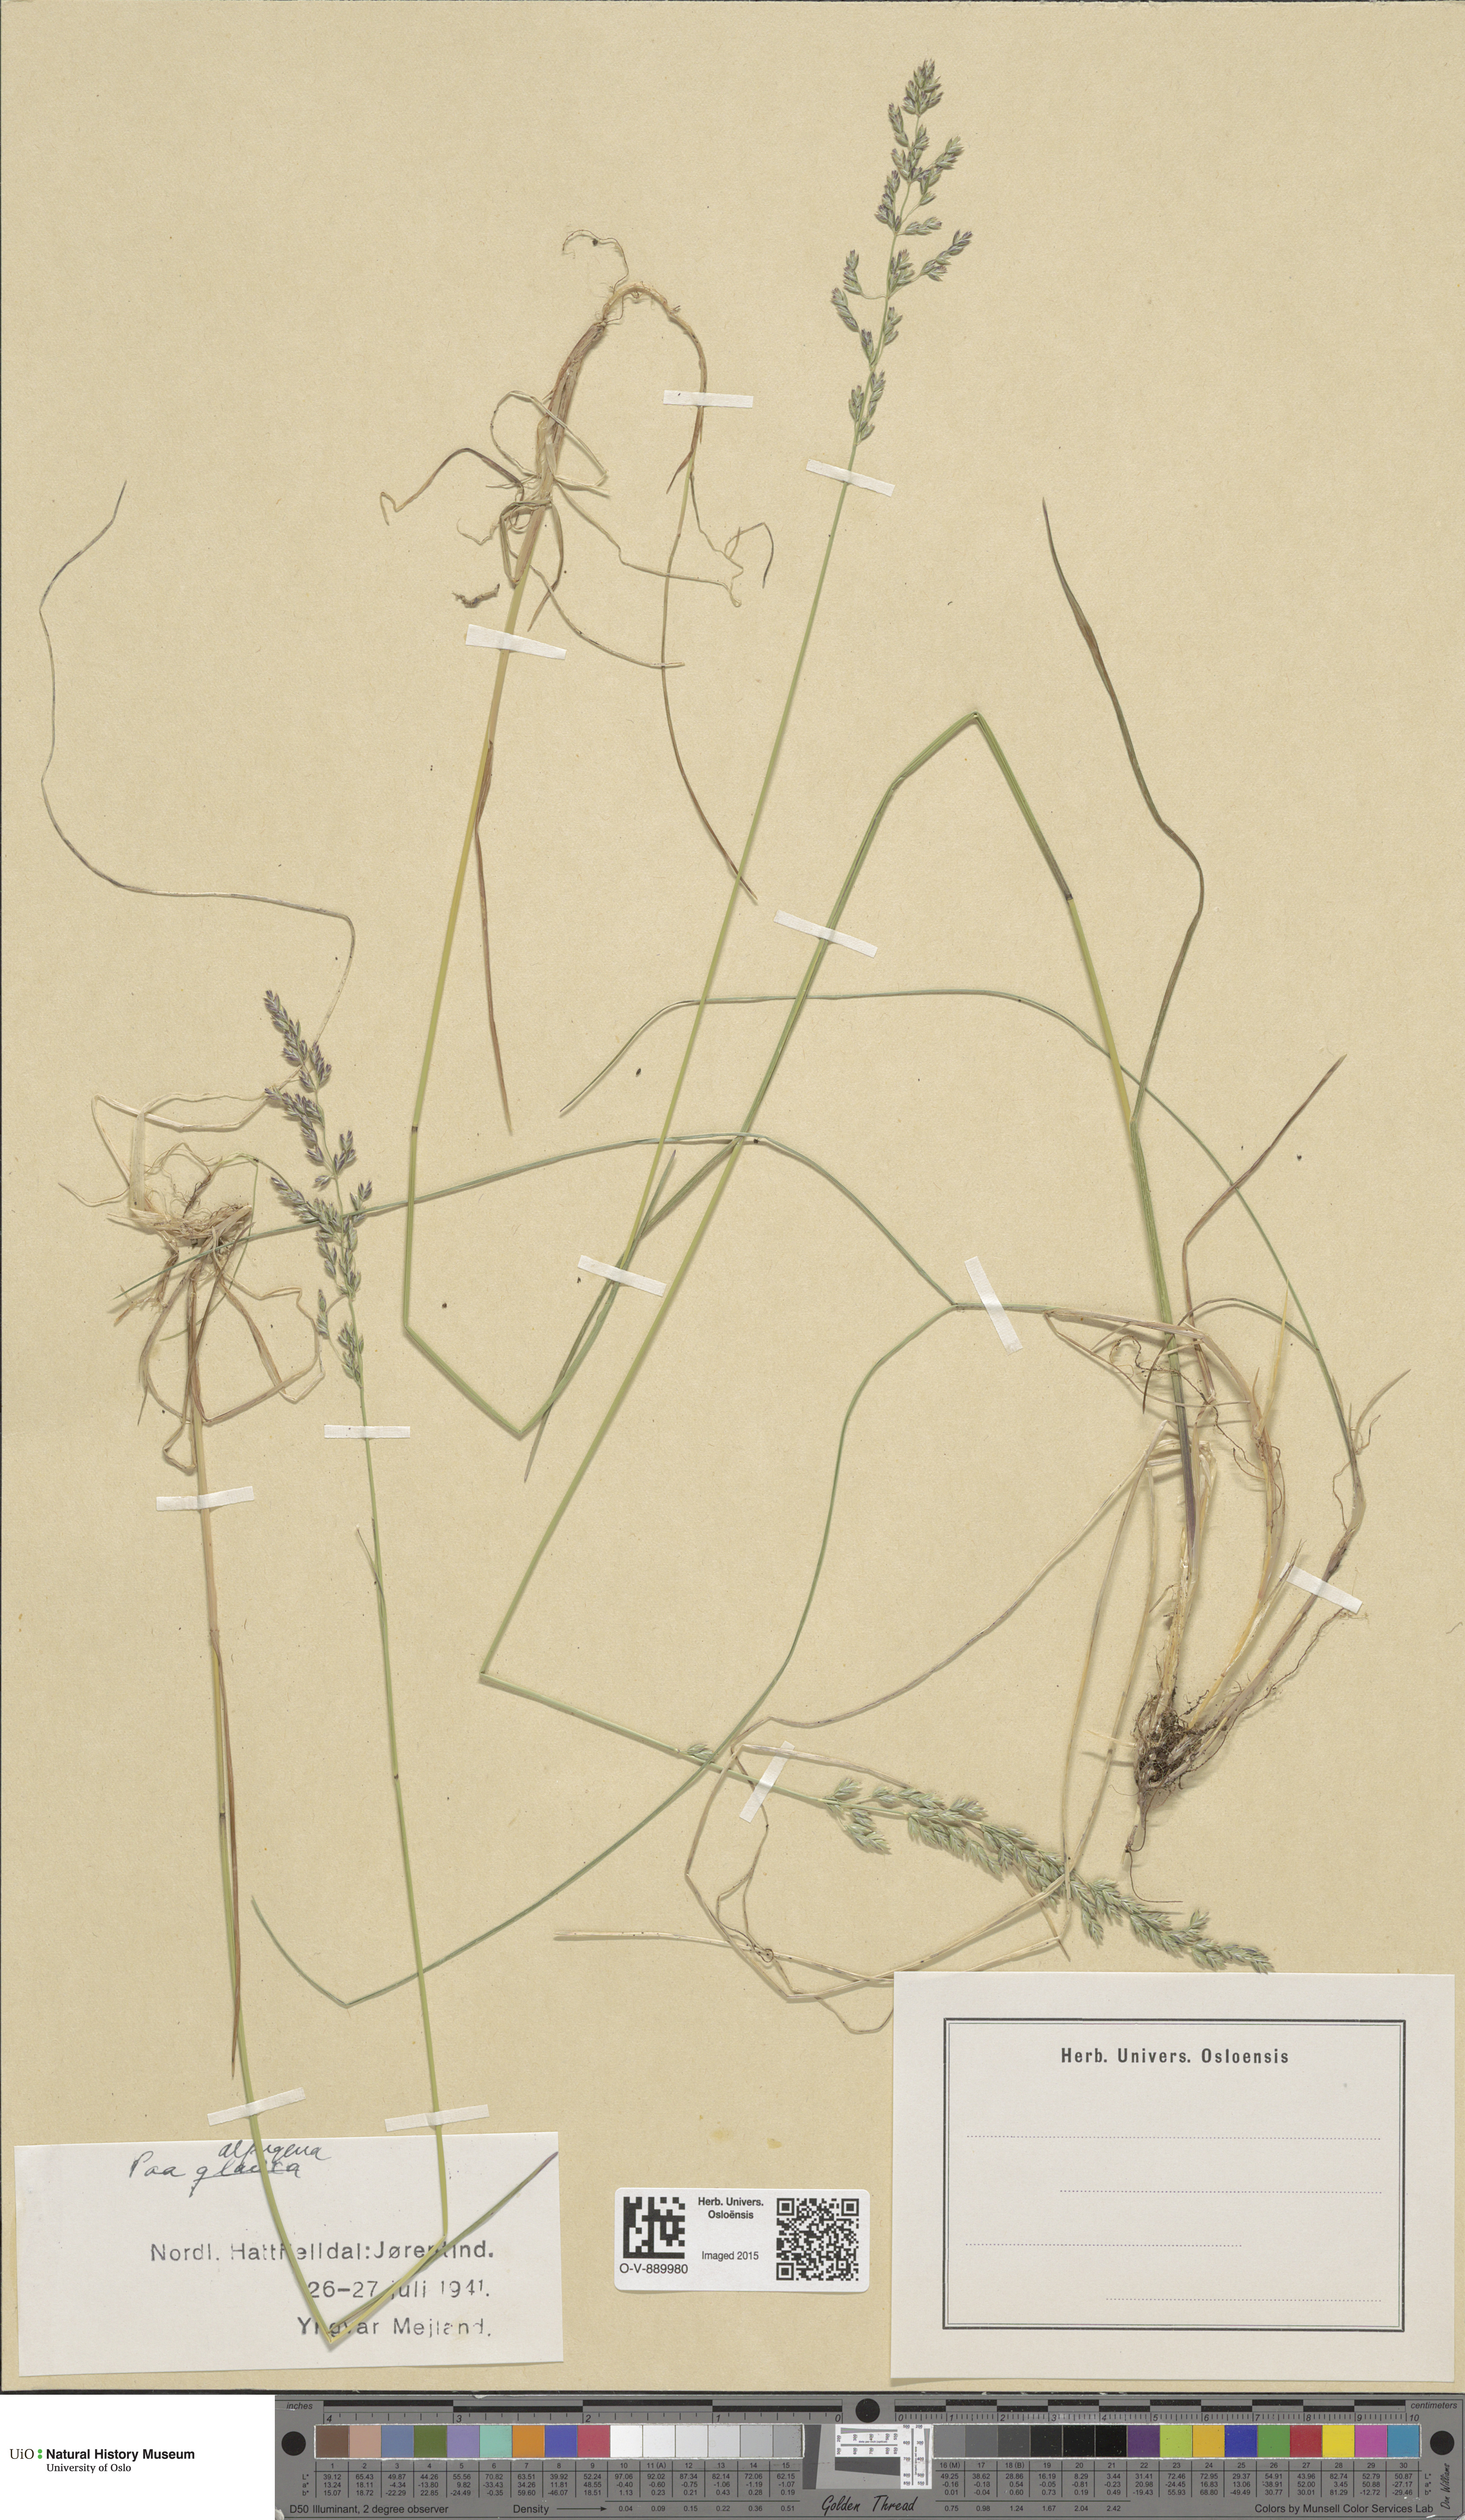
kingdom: Plantae
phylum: Tracheophyta
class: Liliopsida
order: Poales
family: Poaceae
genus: Poa
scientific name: Poa alpigena
